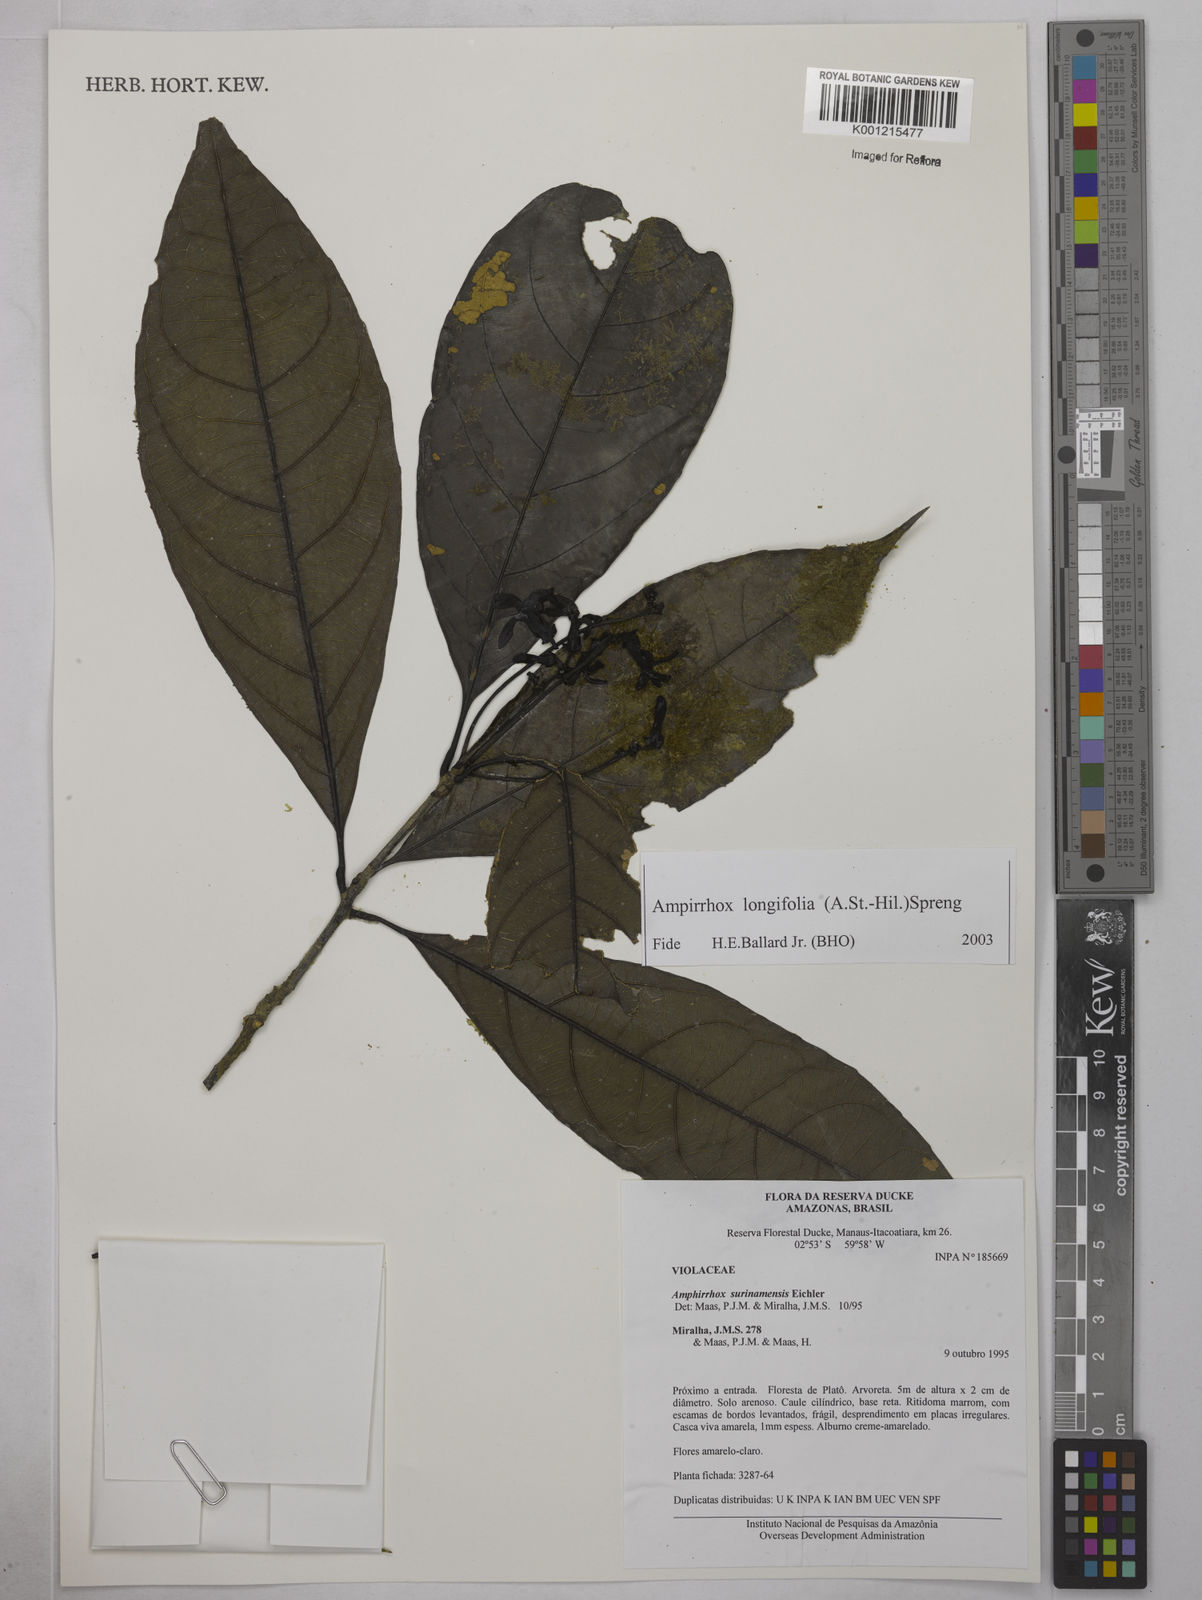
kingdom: Plantae
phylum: Tracheophyta
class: Magnoliopsida
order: Malpighiales
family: Violaceae
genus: Amphirrhox
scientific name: Amphirrhox longifolia
